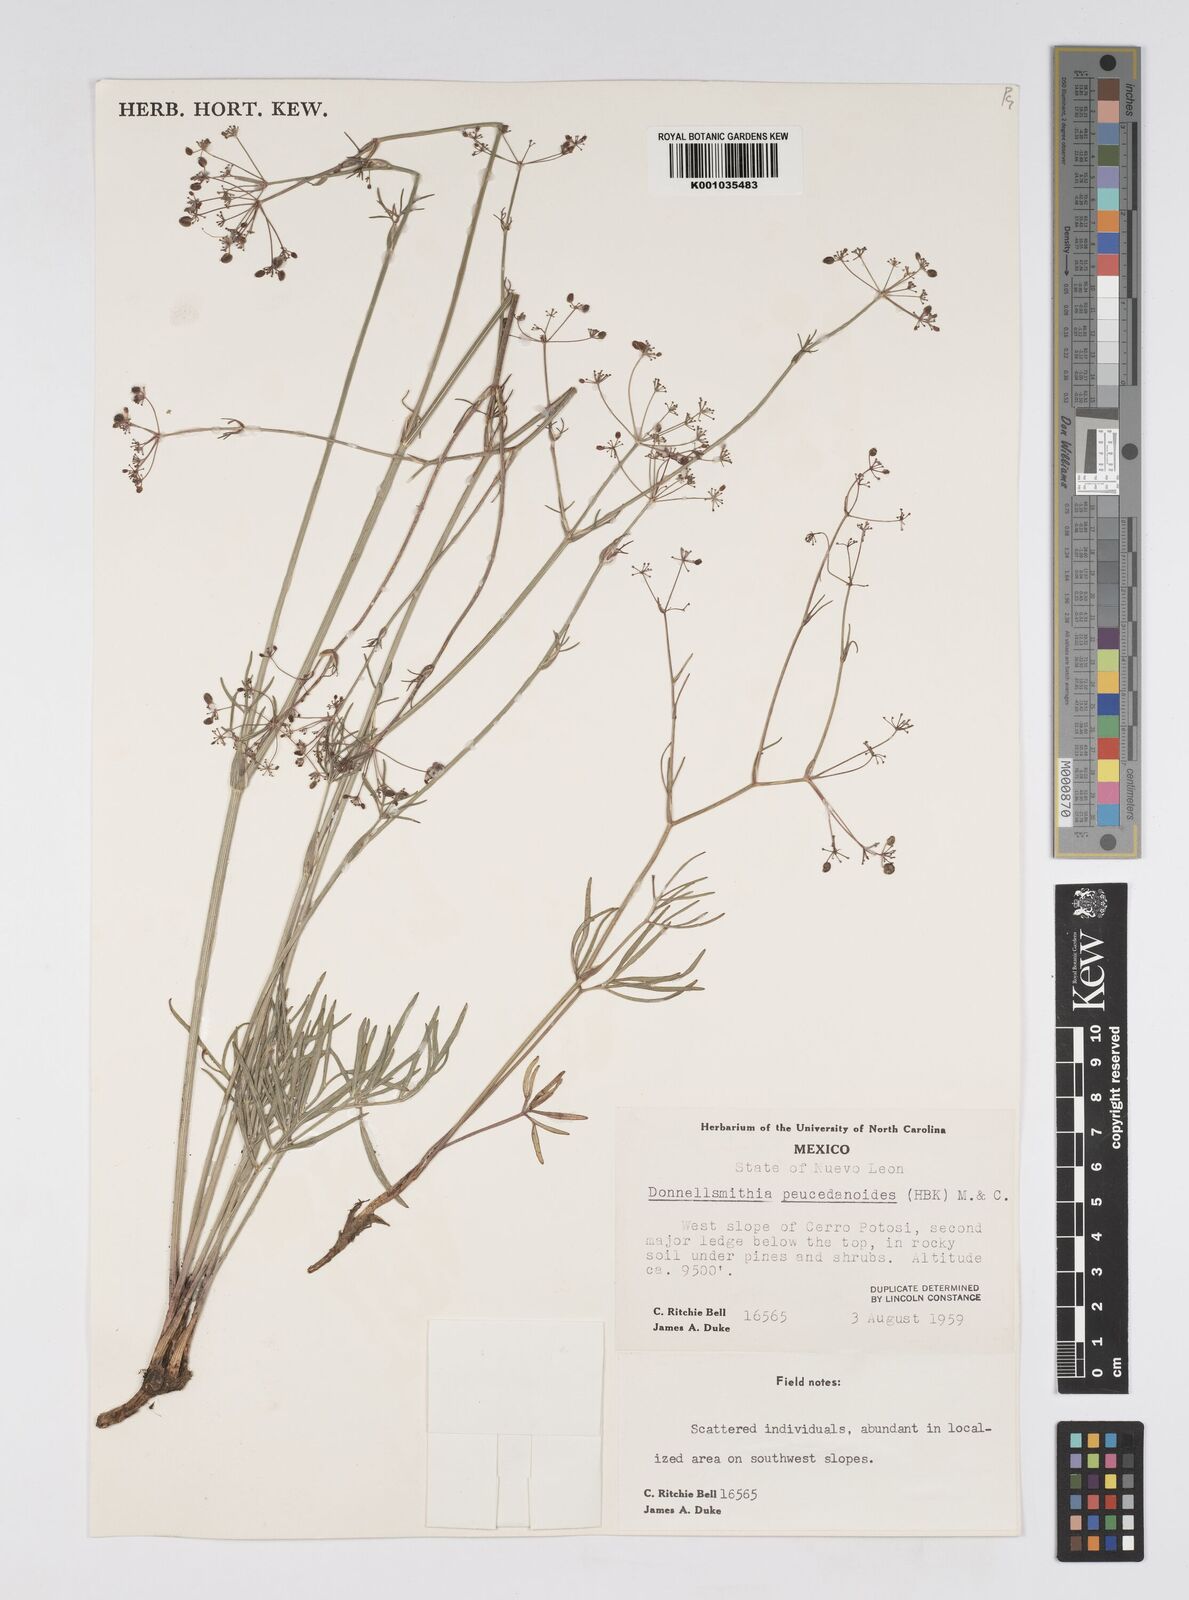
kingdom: Plantae
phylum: Tracheophyta
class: Magnoliopsida
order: Apiales
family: Apiaceae
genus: Donnellsmithia
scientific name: Donnellsmithia juncea
